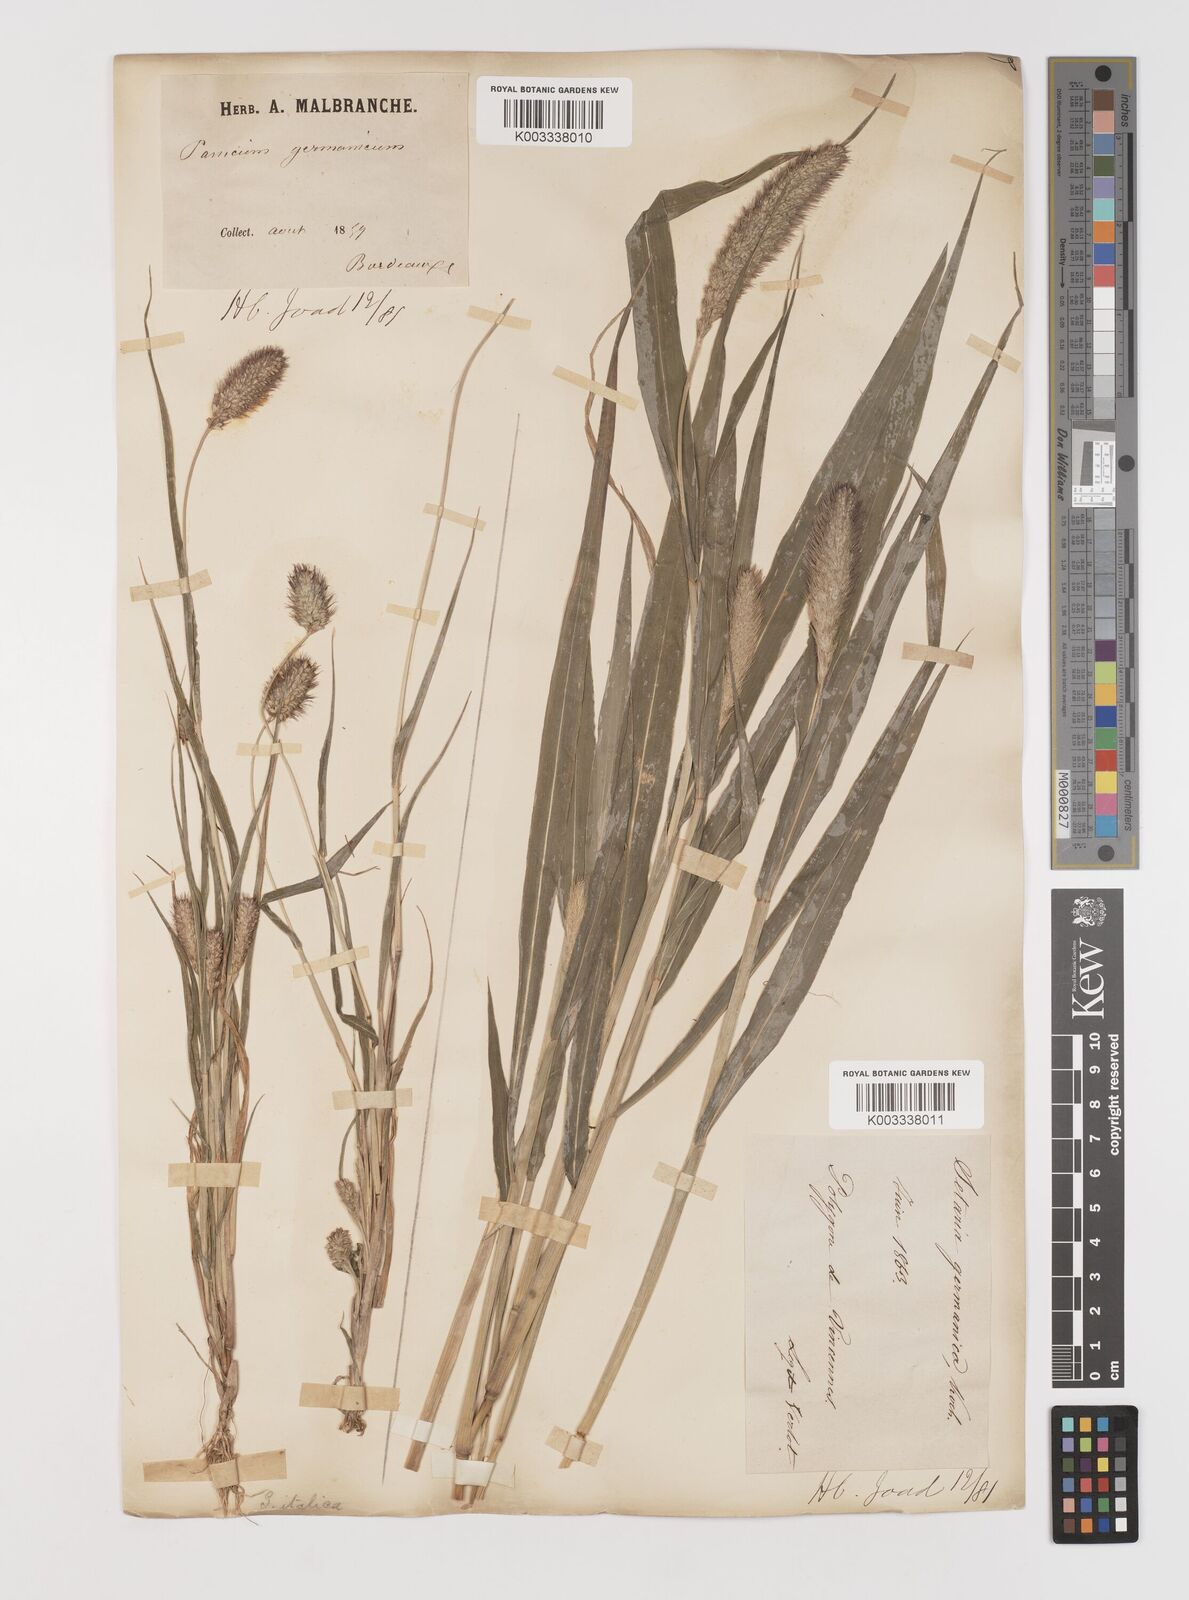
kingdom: Plantae
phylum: Tracheophyta
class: Liliopsida
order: Poales
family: Poaceae
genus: Setaria
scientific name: Setaria italica
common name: Foxtail bristle-grass
